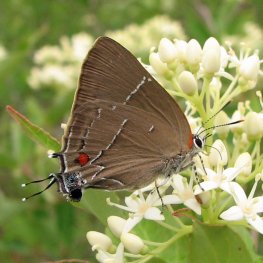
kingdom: Animalia
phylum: Arthropoda
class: Insecta
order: Lepidoptera
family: Lycaenidae
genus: Parrhasius
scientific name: Parrhasius m-album
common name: White-m Hairstreak
